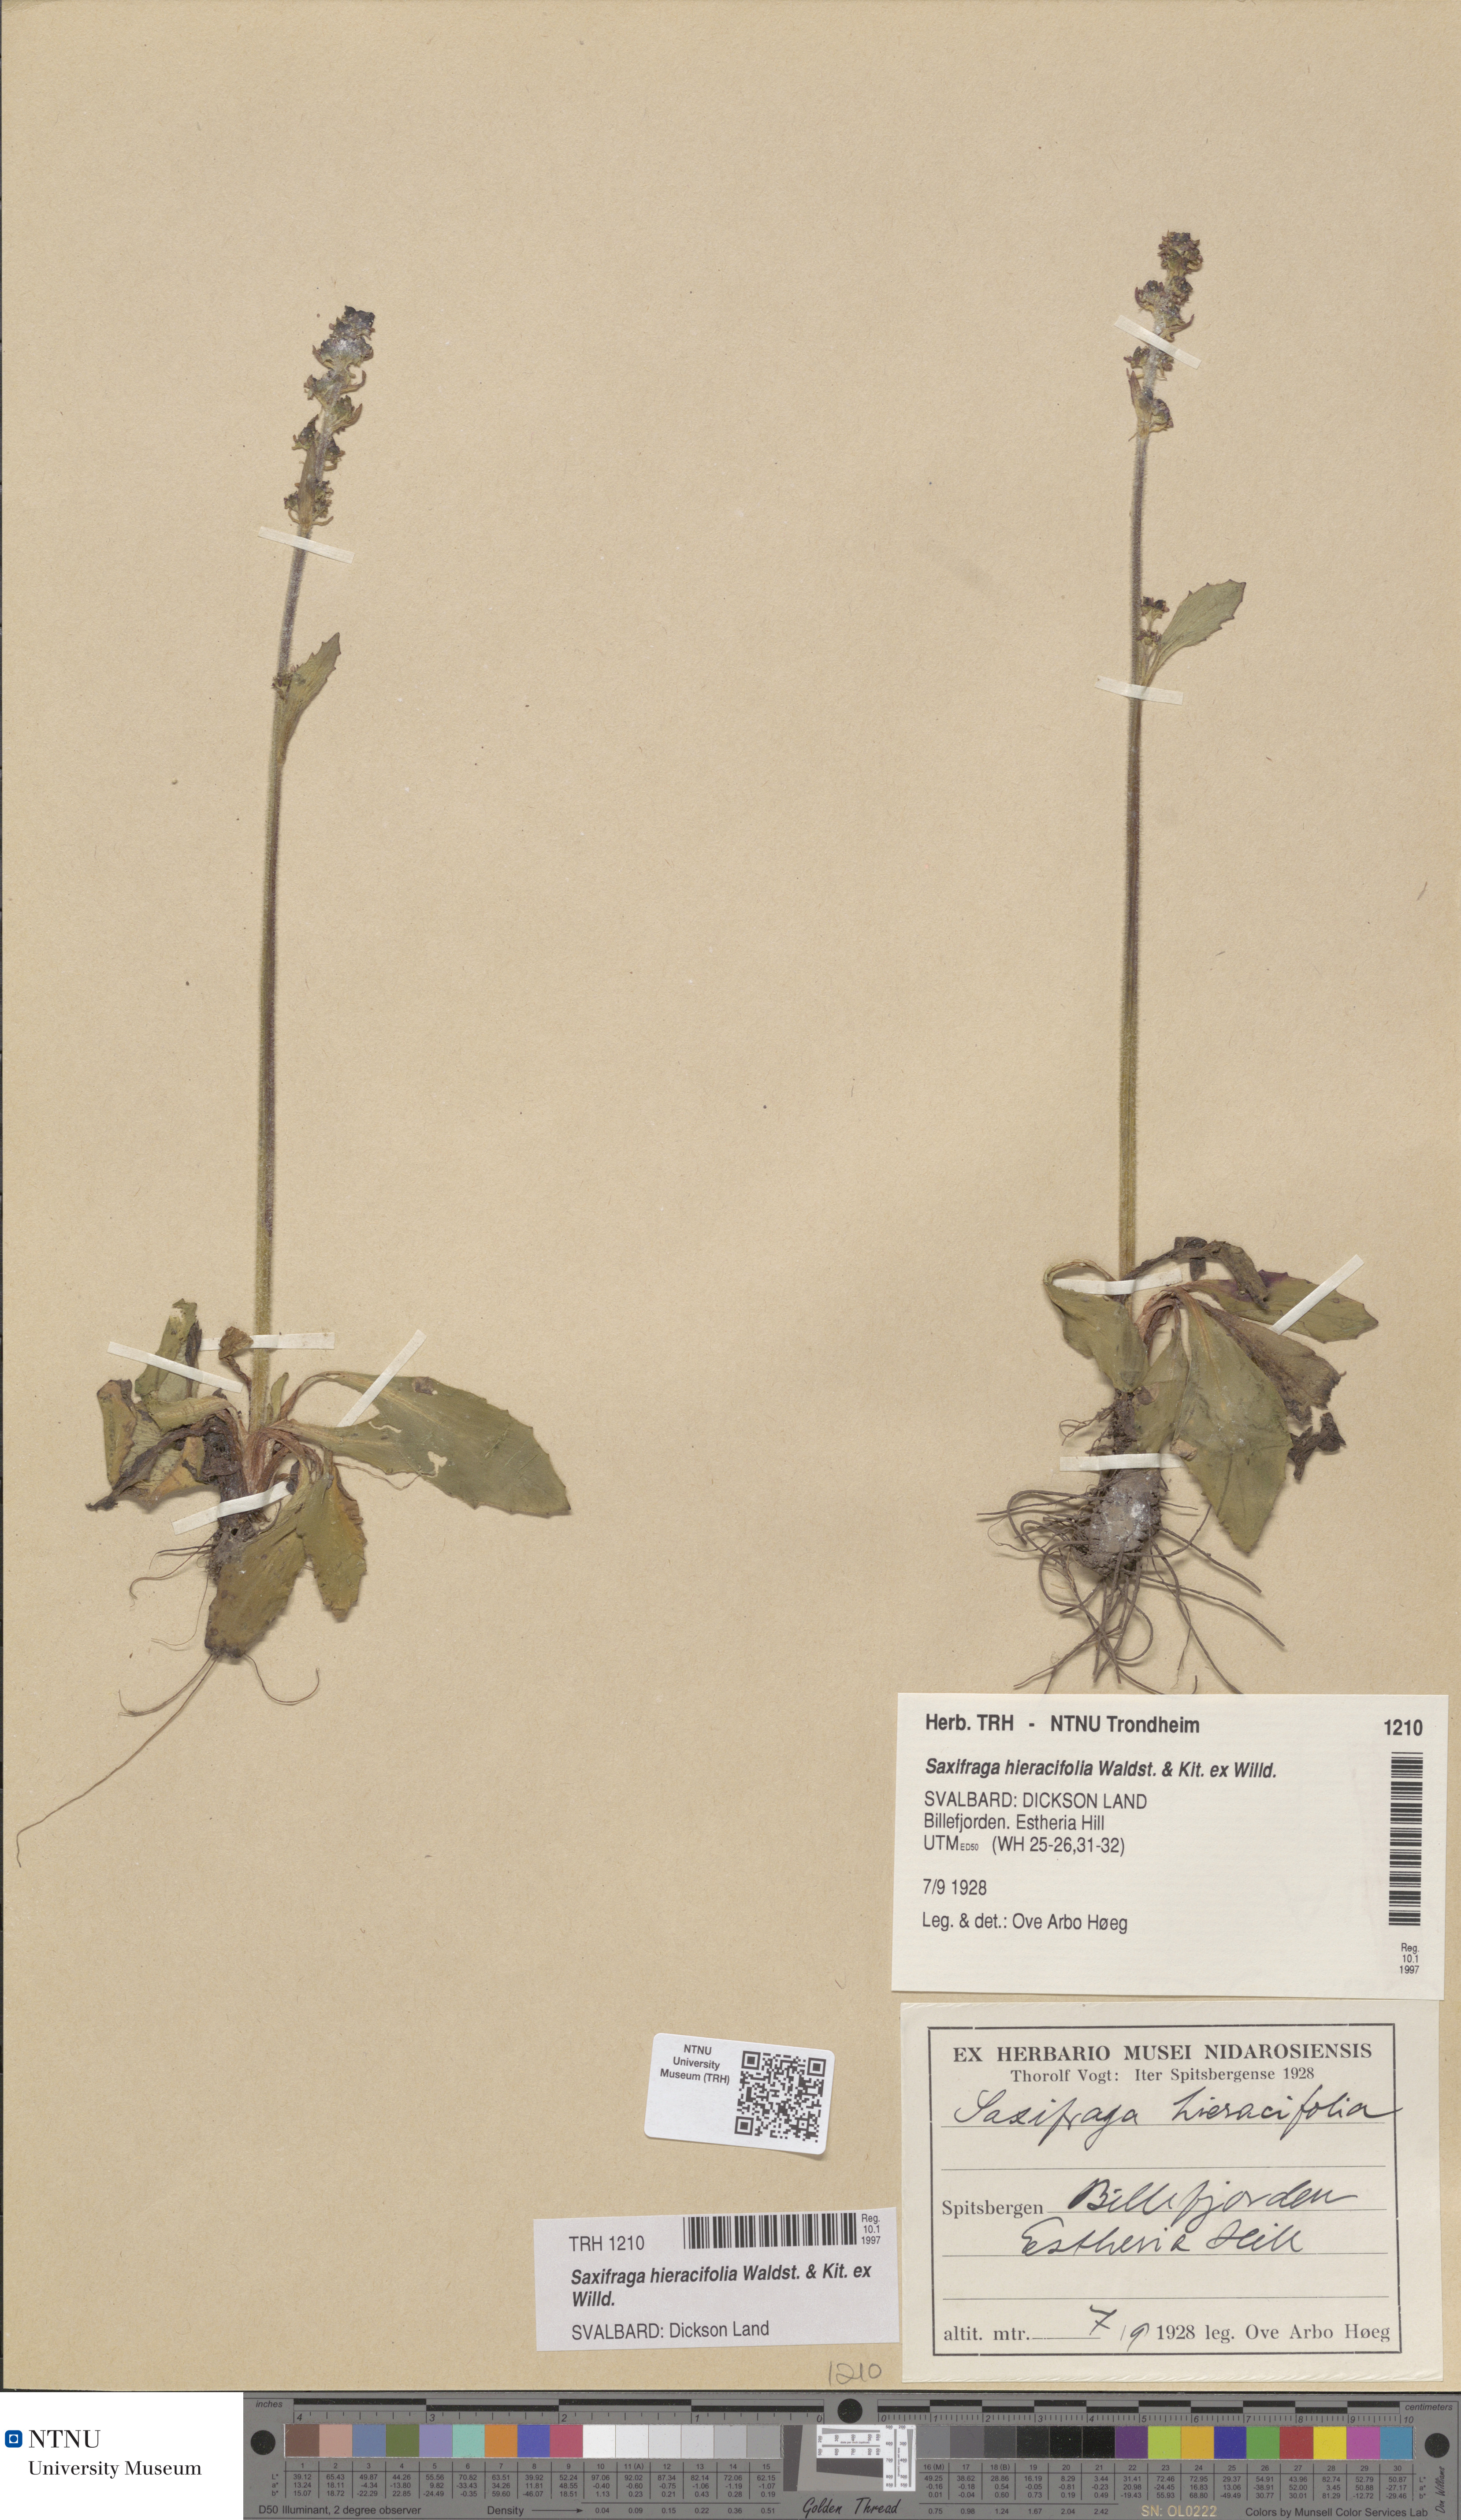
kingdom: Plantae
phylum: Tracheophyta
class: Magnoliopsida
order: Saxifragales
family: Saxifragaceae
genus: Micranthes
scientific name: Micranthes hieraciifolia
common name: Hawkweed-leaved saxifrage
